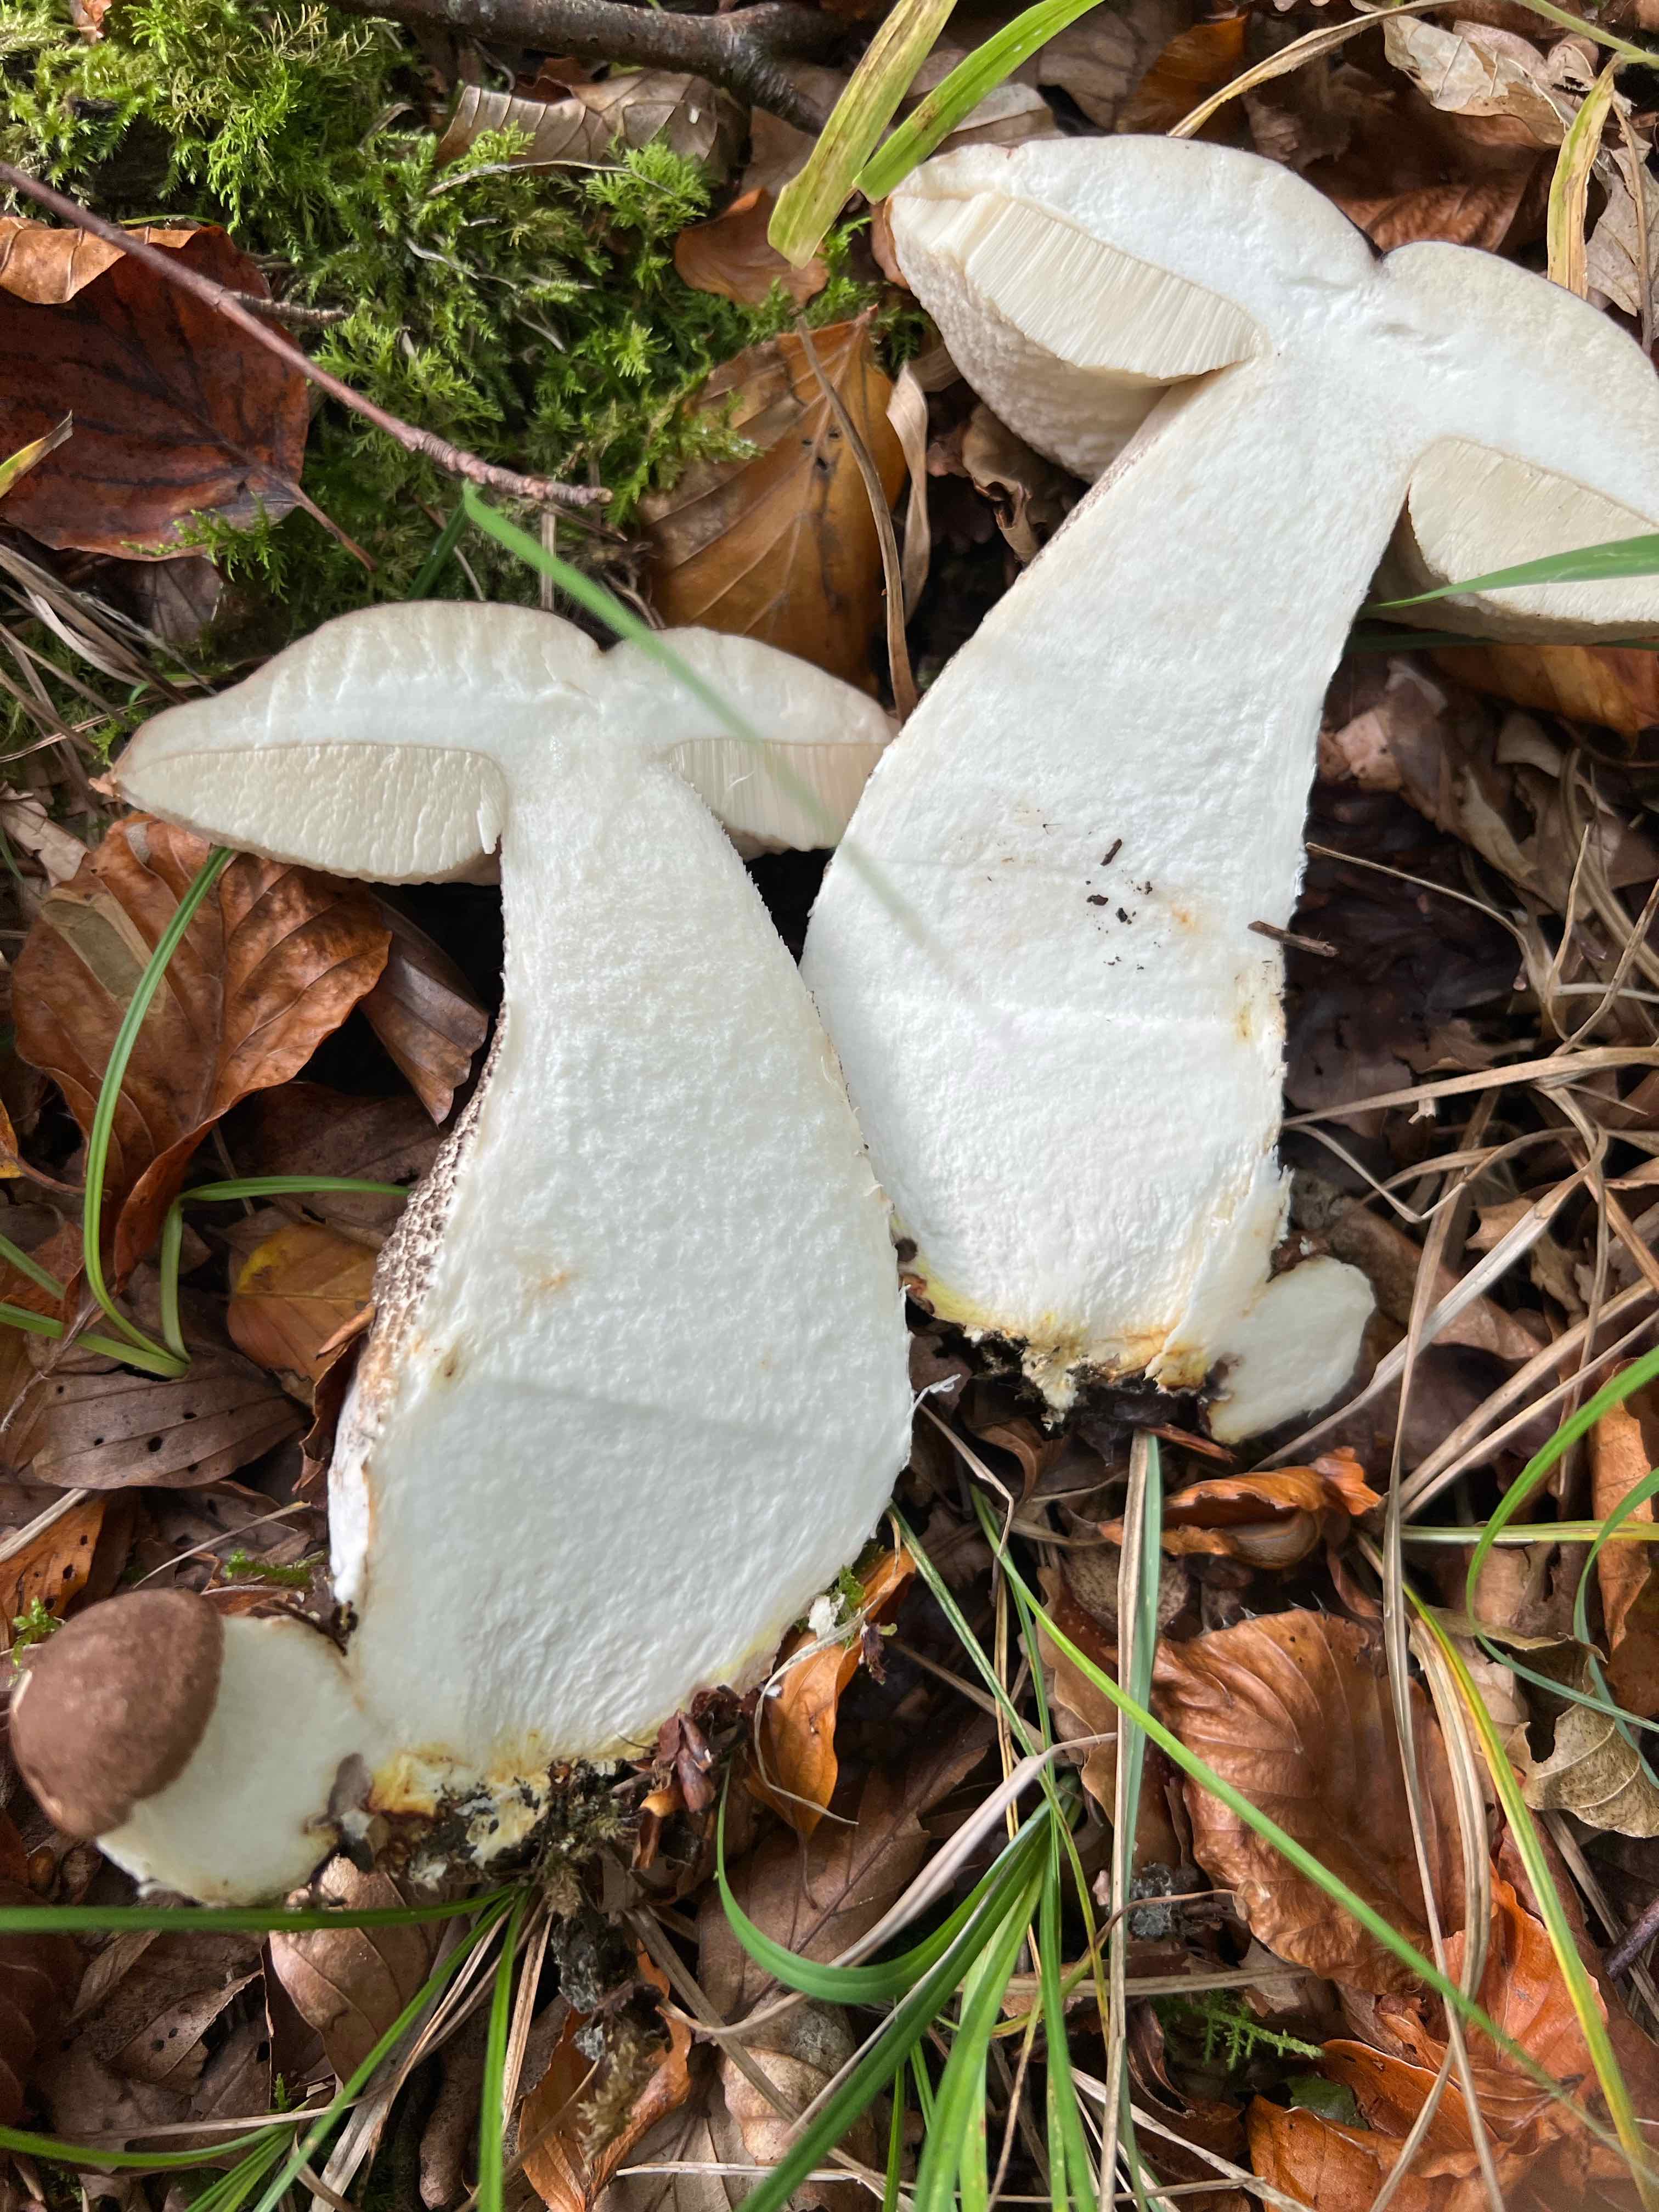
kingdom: Fungi
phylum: Basidiomycota
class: Agaricomycetes
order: Boletales
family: Boletaceae
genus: Leccinum
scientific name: Leccinum scabrum
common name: brun skælrørhat
